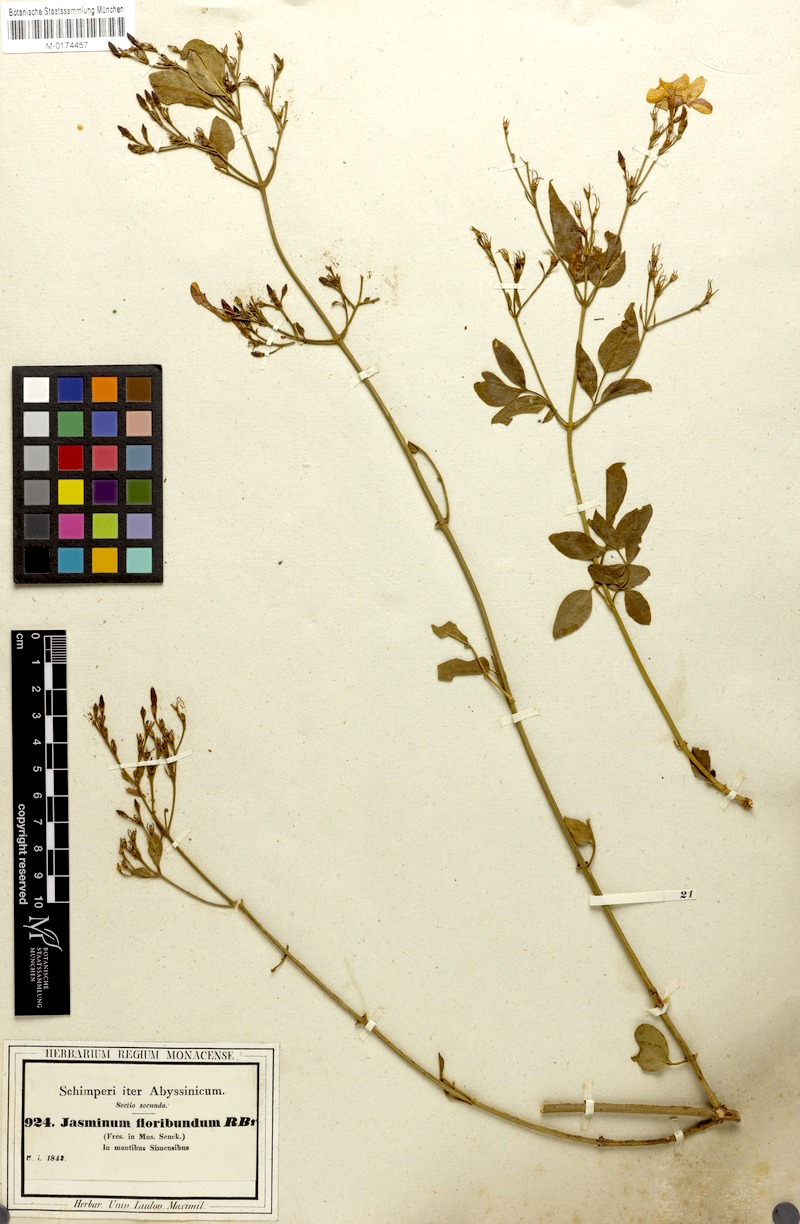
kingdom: Plantae
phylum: Tracheophyta
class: Magnoliopsida
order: Lamiales
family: Oleaceae
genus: Jasminum
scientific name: Jasminum grandiflorum
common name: Catalonian jasmine
